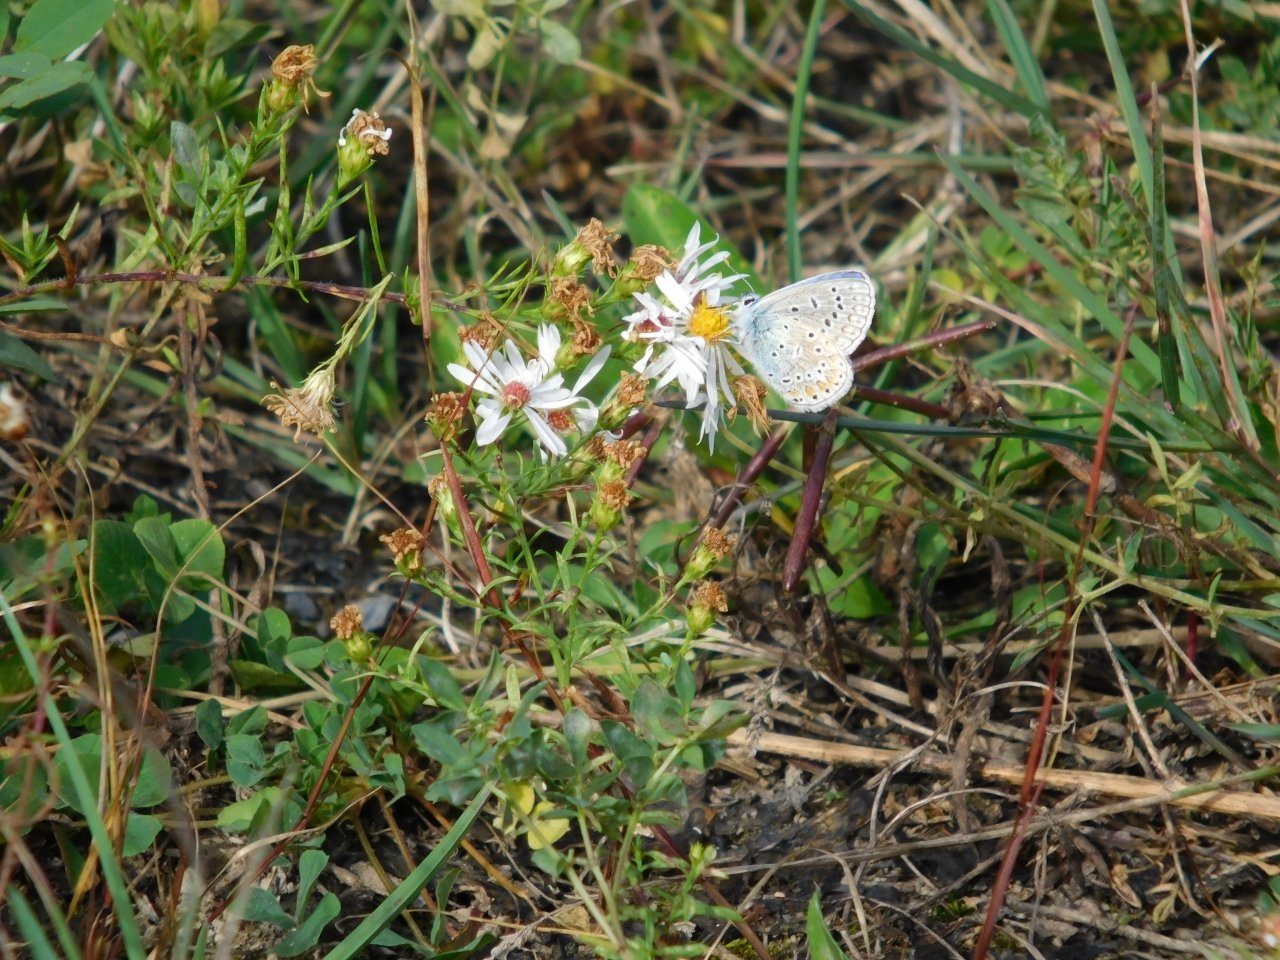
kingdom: Animalia
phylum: Arthropoda
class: Insecta
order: Lepidoptera
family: Lycaenidae
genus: Polyommatus
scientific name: Polyommatus icarus
